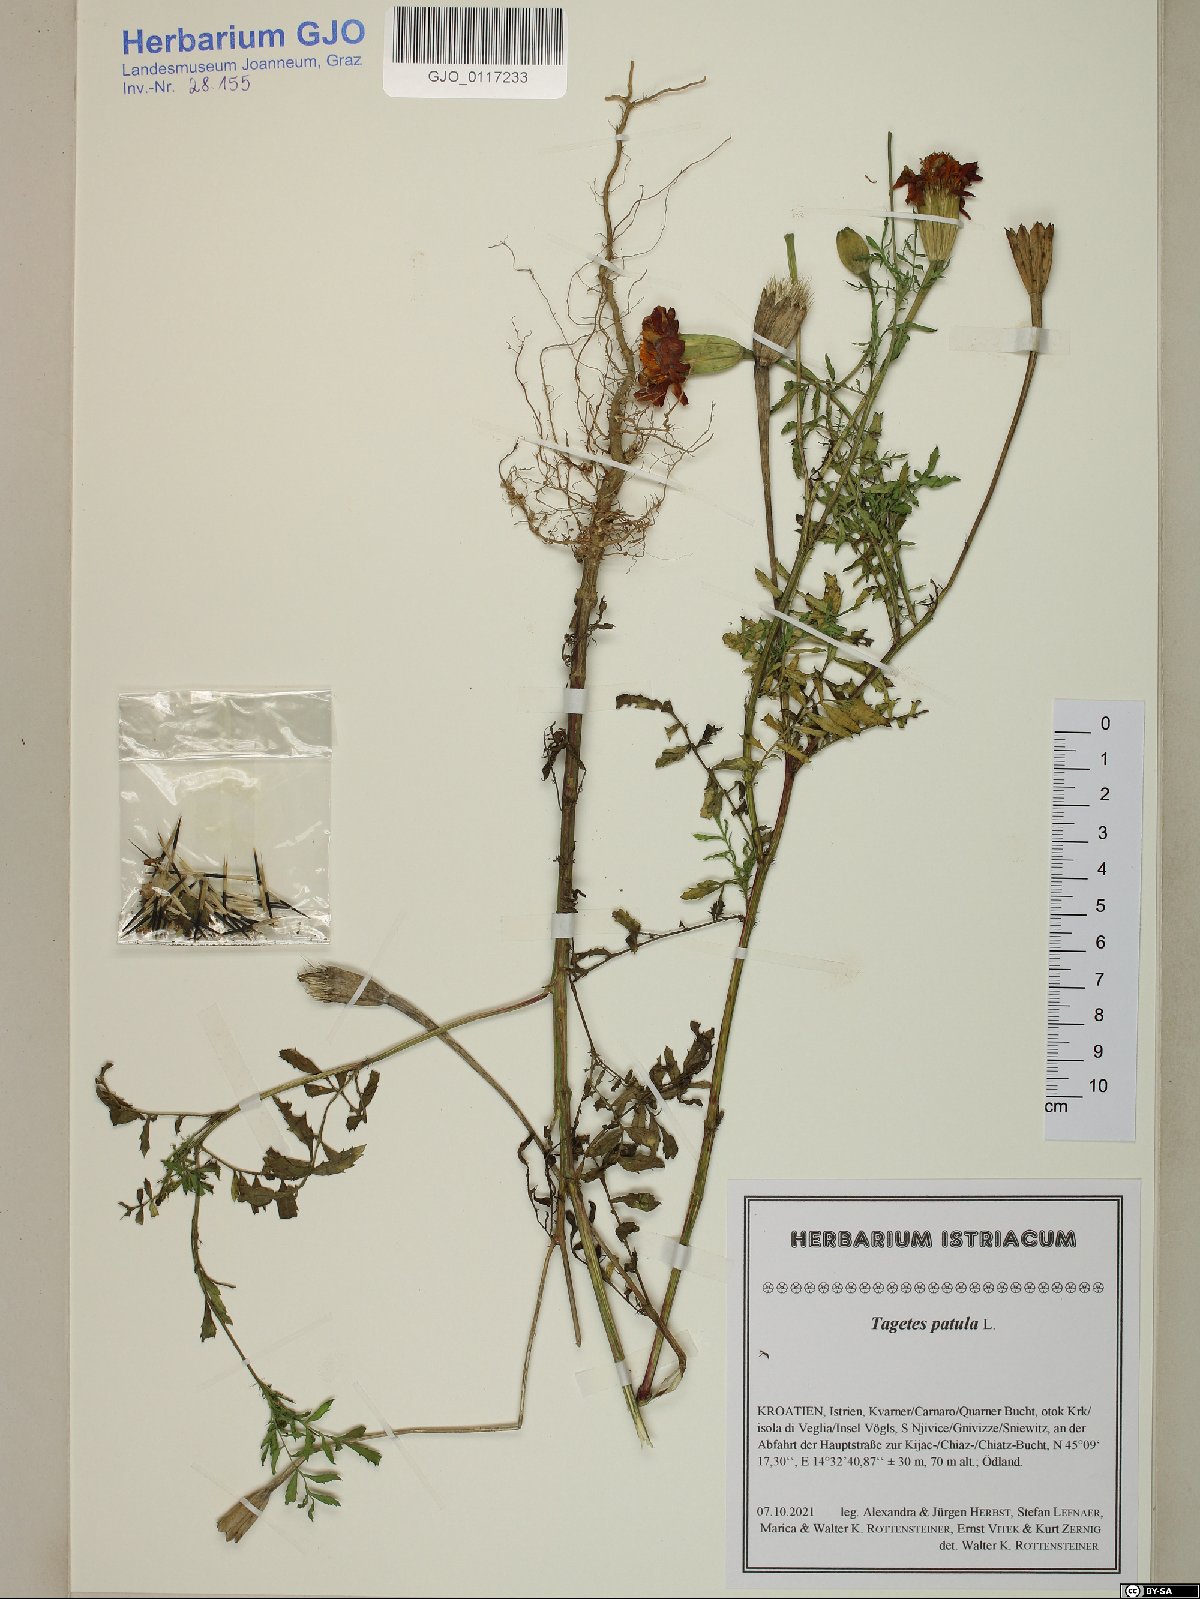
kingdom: Plantae
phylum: Tracheophyta
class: Magnoliopsida
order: Asterales
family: Asteraceae
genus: Tagetes
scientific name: Tagetes erecta
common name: African marigold
